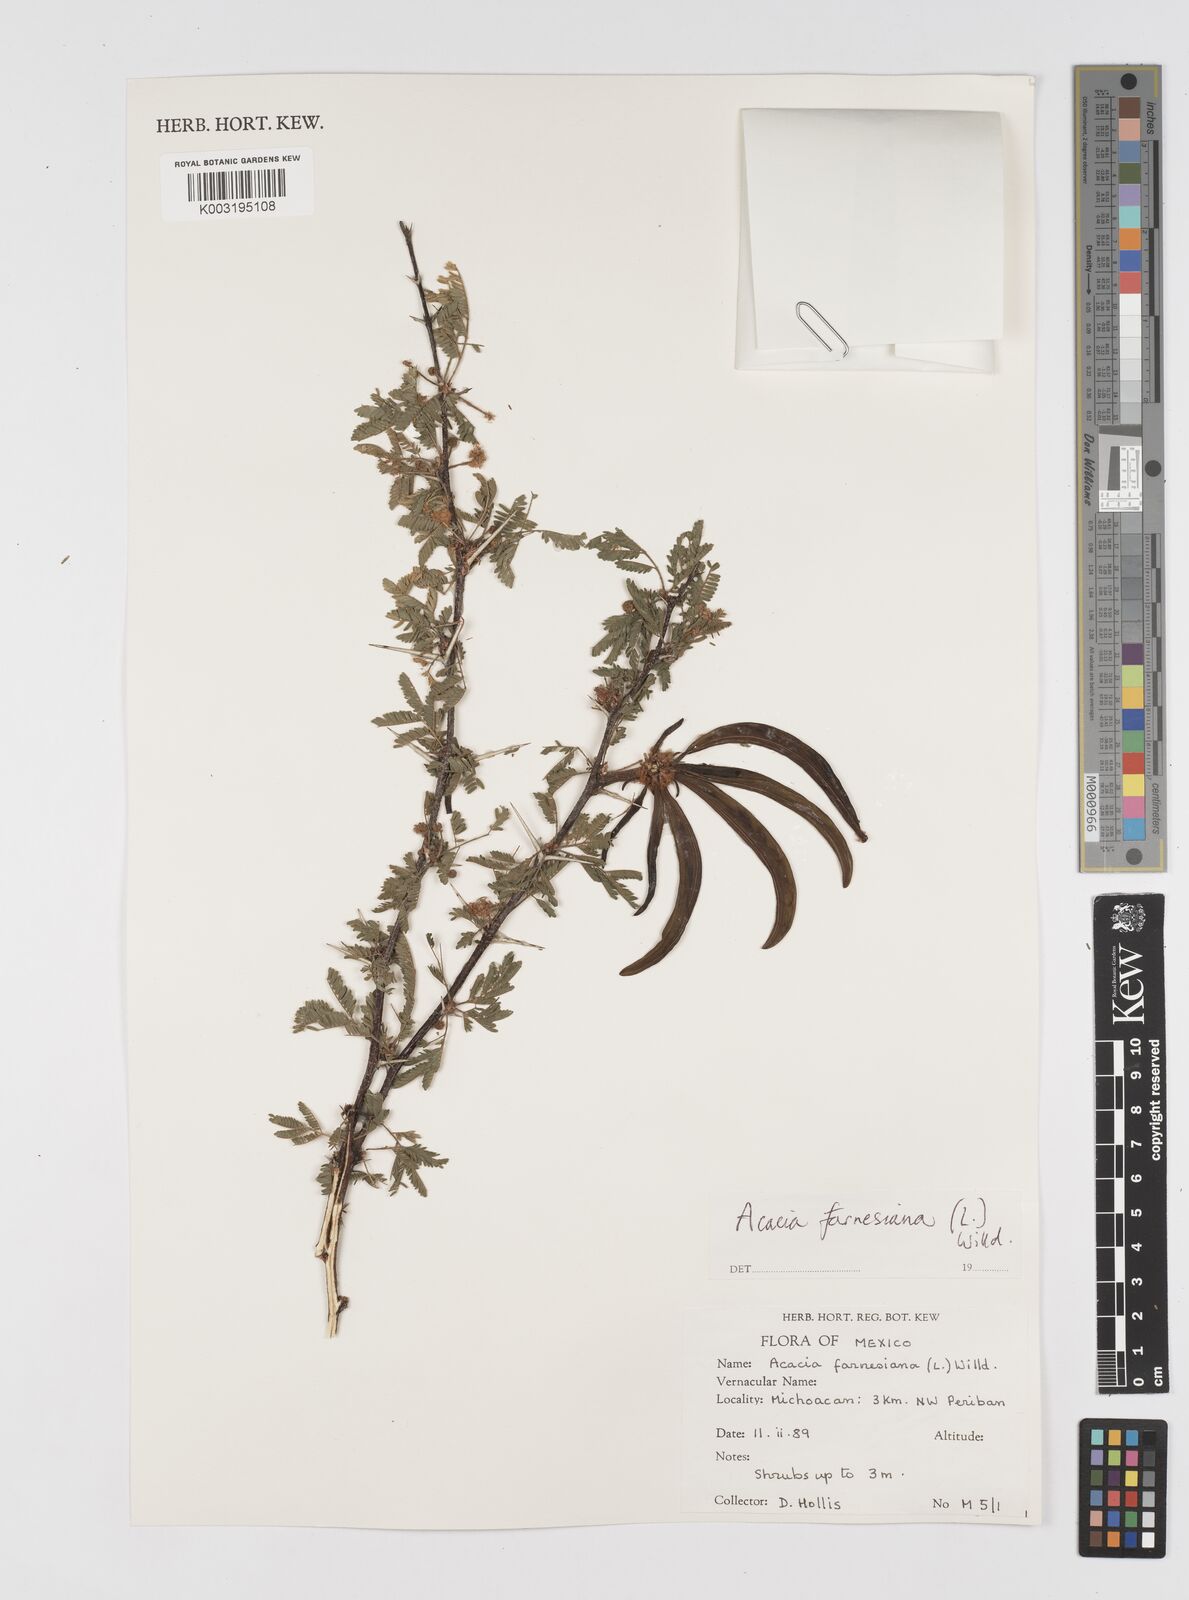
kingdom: Plantae
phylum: Tracheophyta
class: Magnoliopsida
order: Fabales
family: Fabaceae
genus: Vachellia
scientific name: Vachellia farnesiana
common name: Sweet acacia
